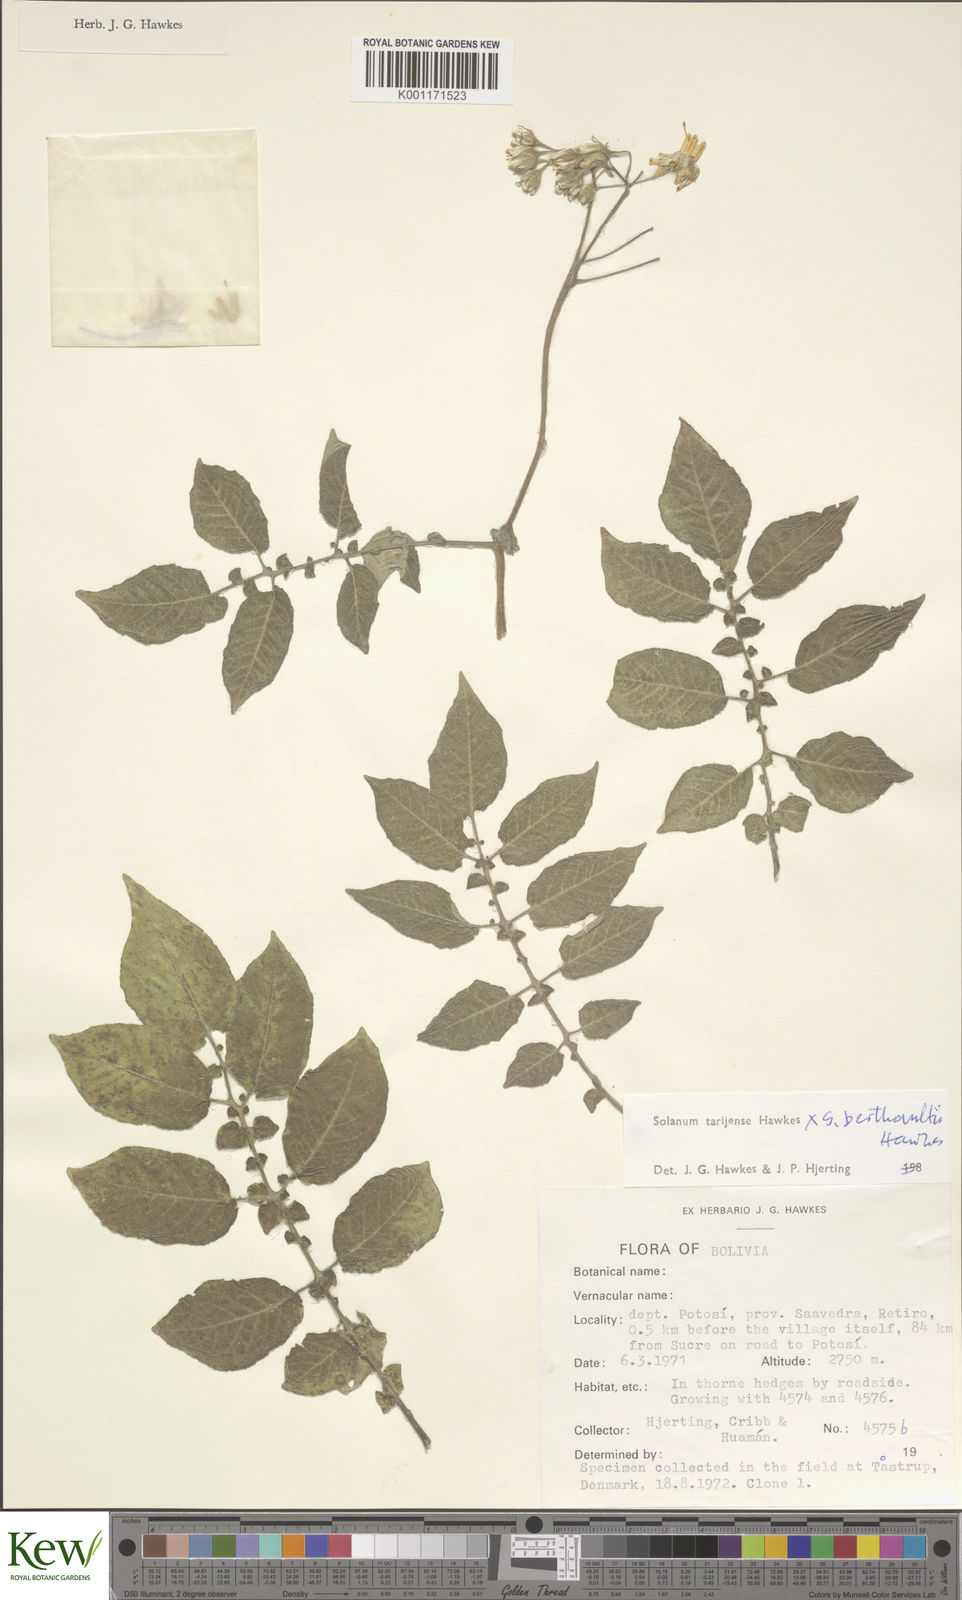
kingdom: Plantae
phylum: Tracheophyta
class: Magnoliopsida
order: Solanales
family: Solanaceae
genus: Solanum
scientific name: Solanum tarijense
